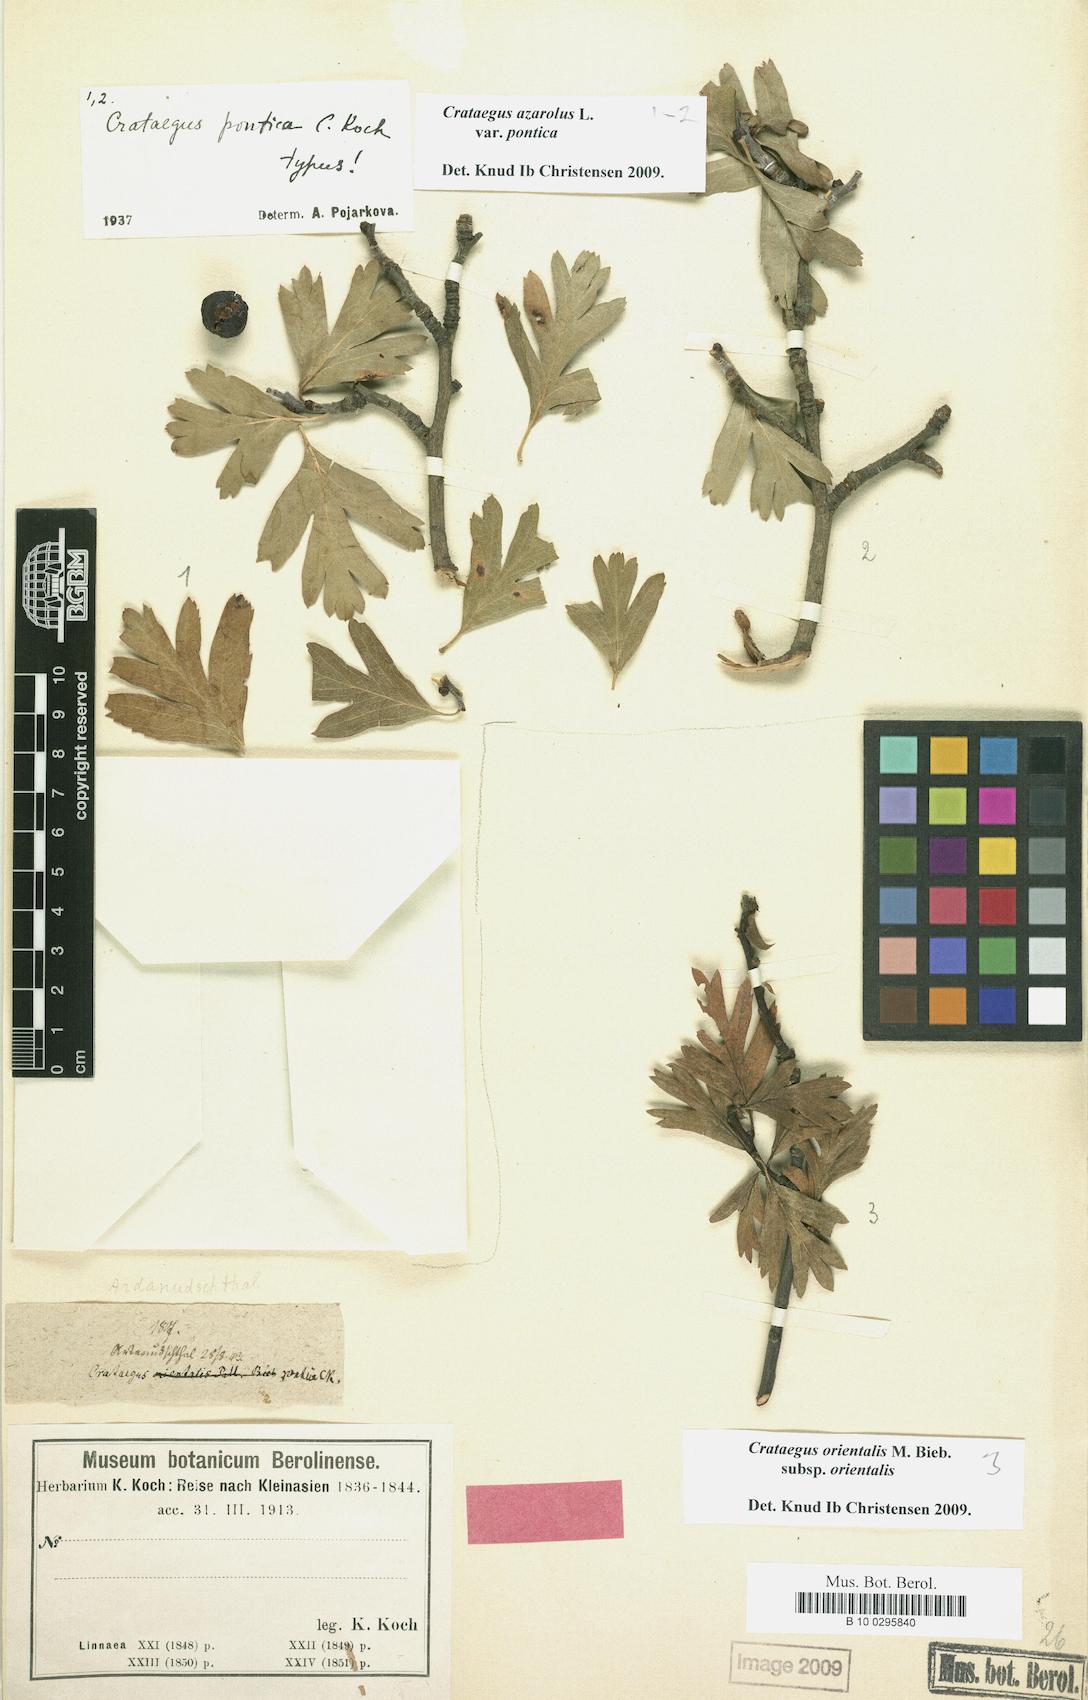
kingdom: Plantae
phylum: Tracheophyta
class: Magnoliopsida
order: Rosales
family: Rosaceae
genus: Crataegus
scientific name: Crataegus azarolus
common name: Azarole
